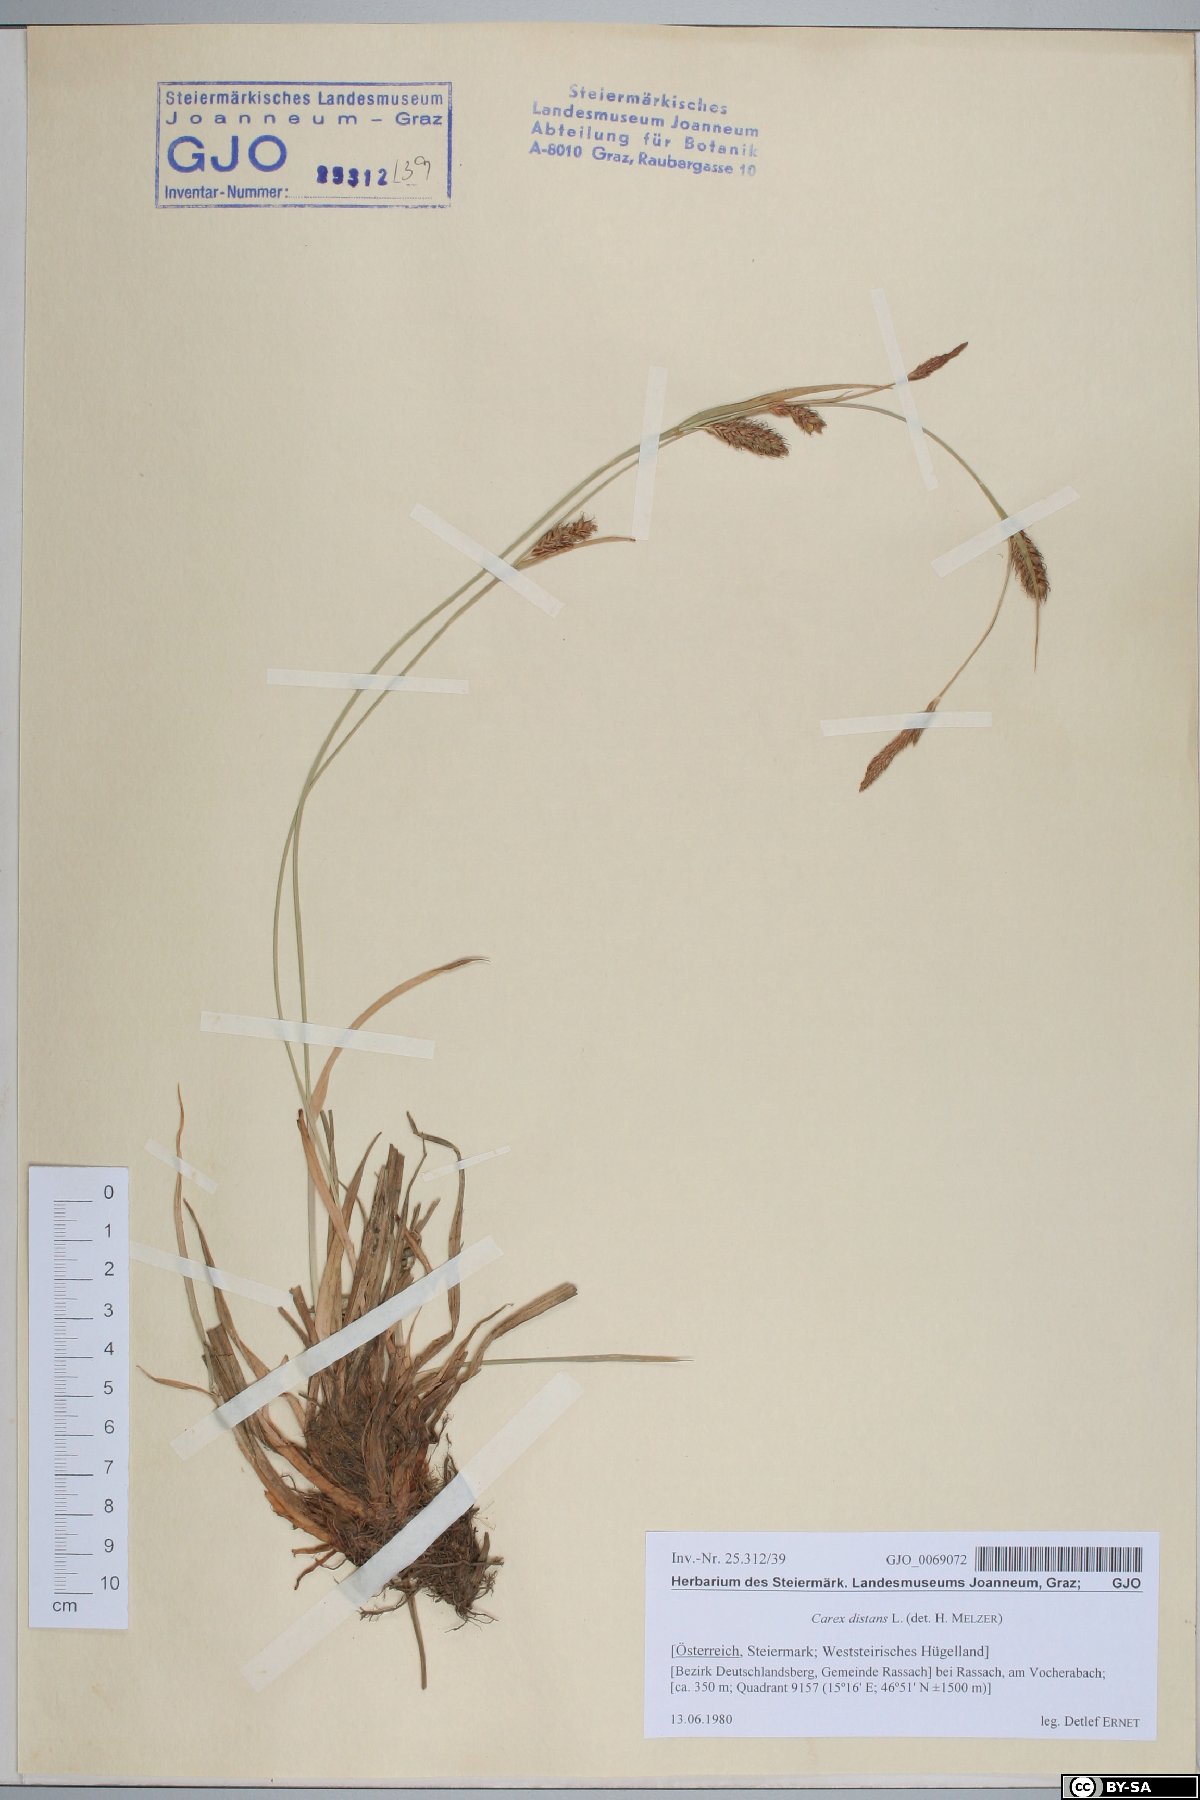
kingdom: Plantae
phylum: Tracheophyta
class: Liliopsida
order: Poales
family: Cyperaceae
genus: Carex
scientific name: Carex distans
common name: Distant sedge
